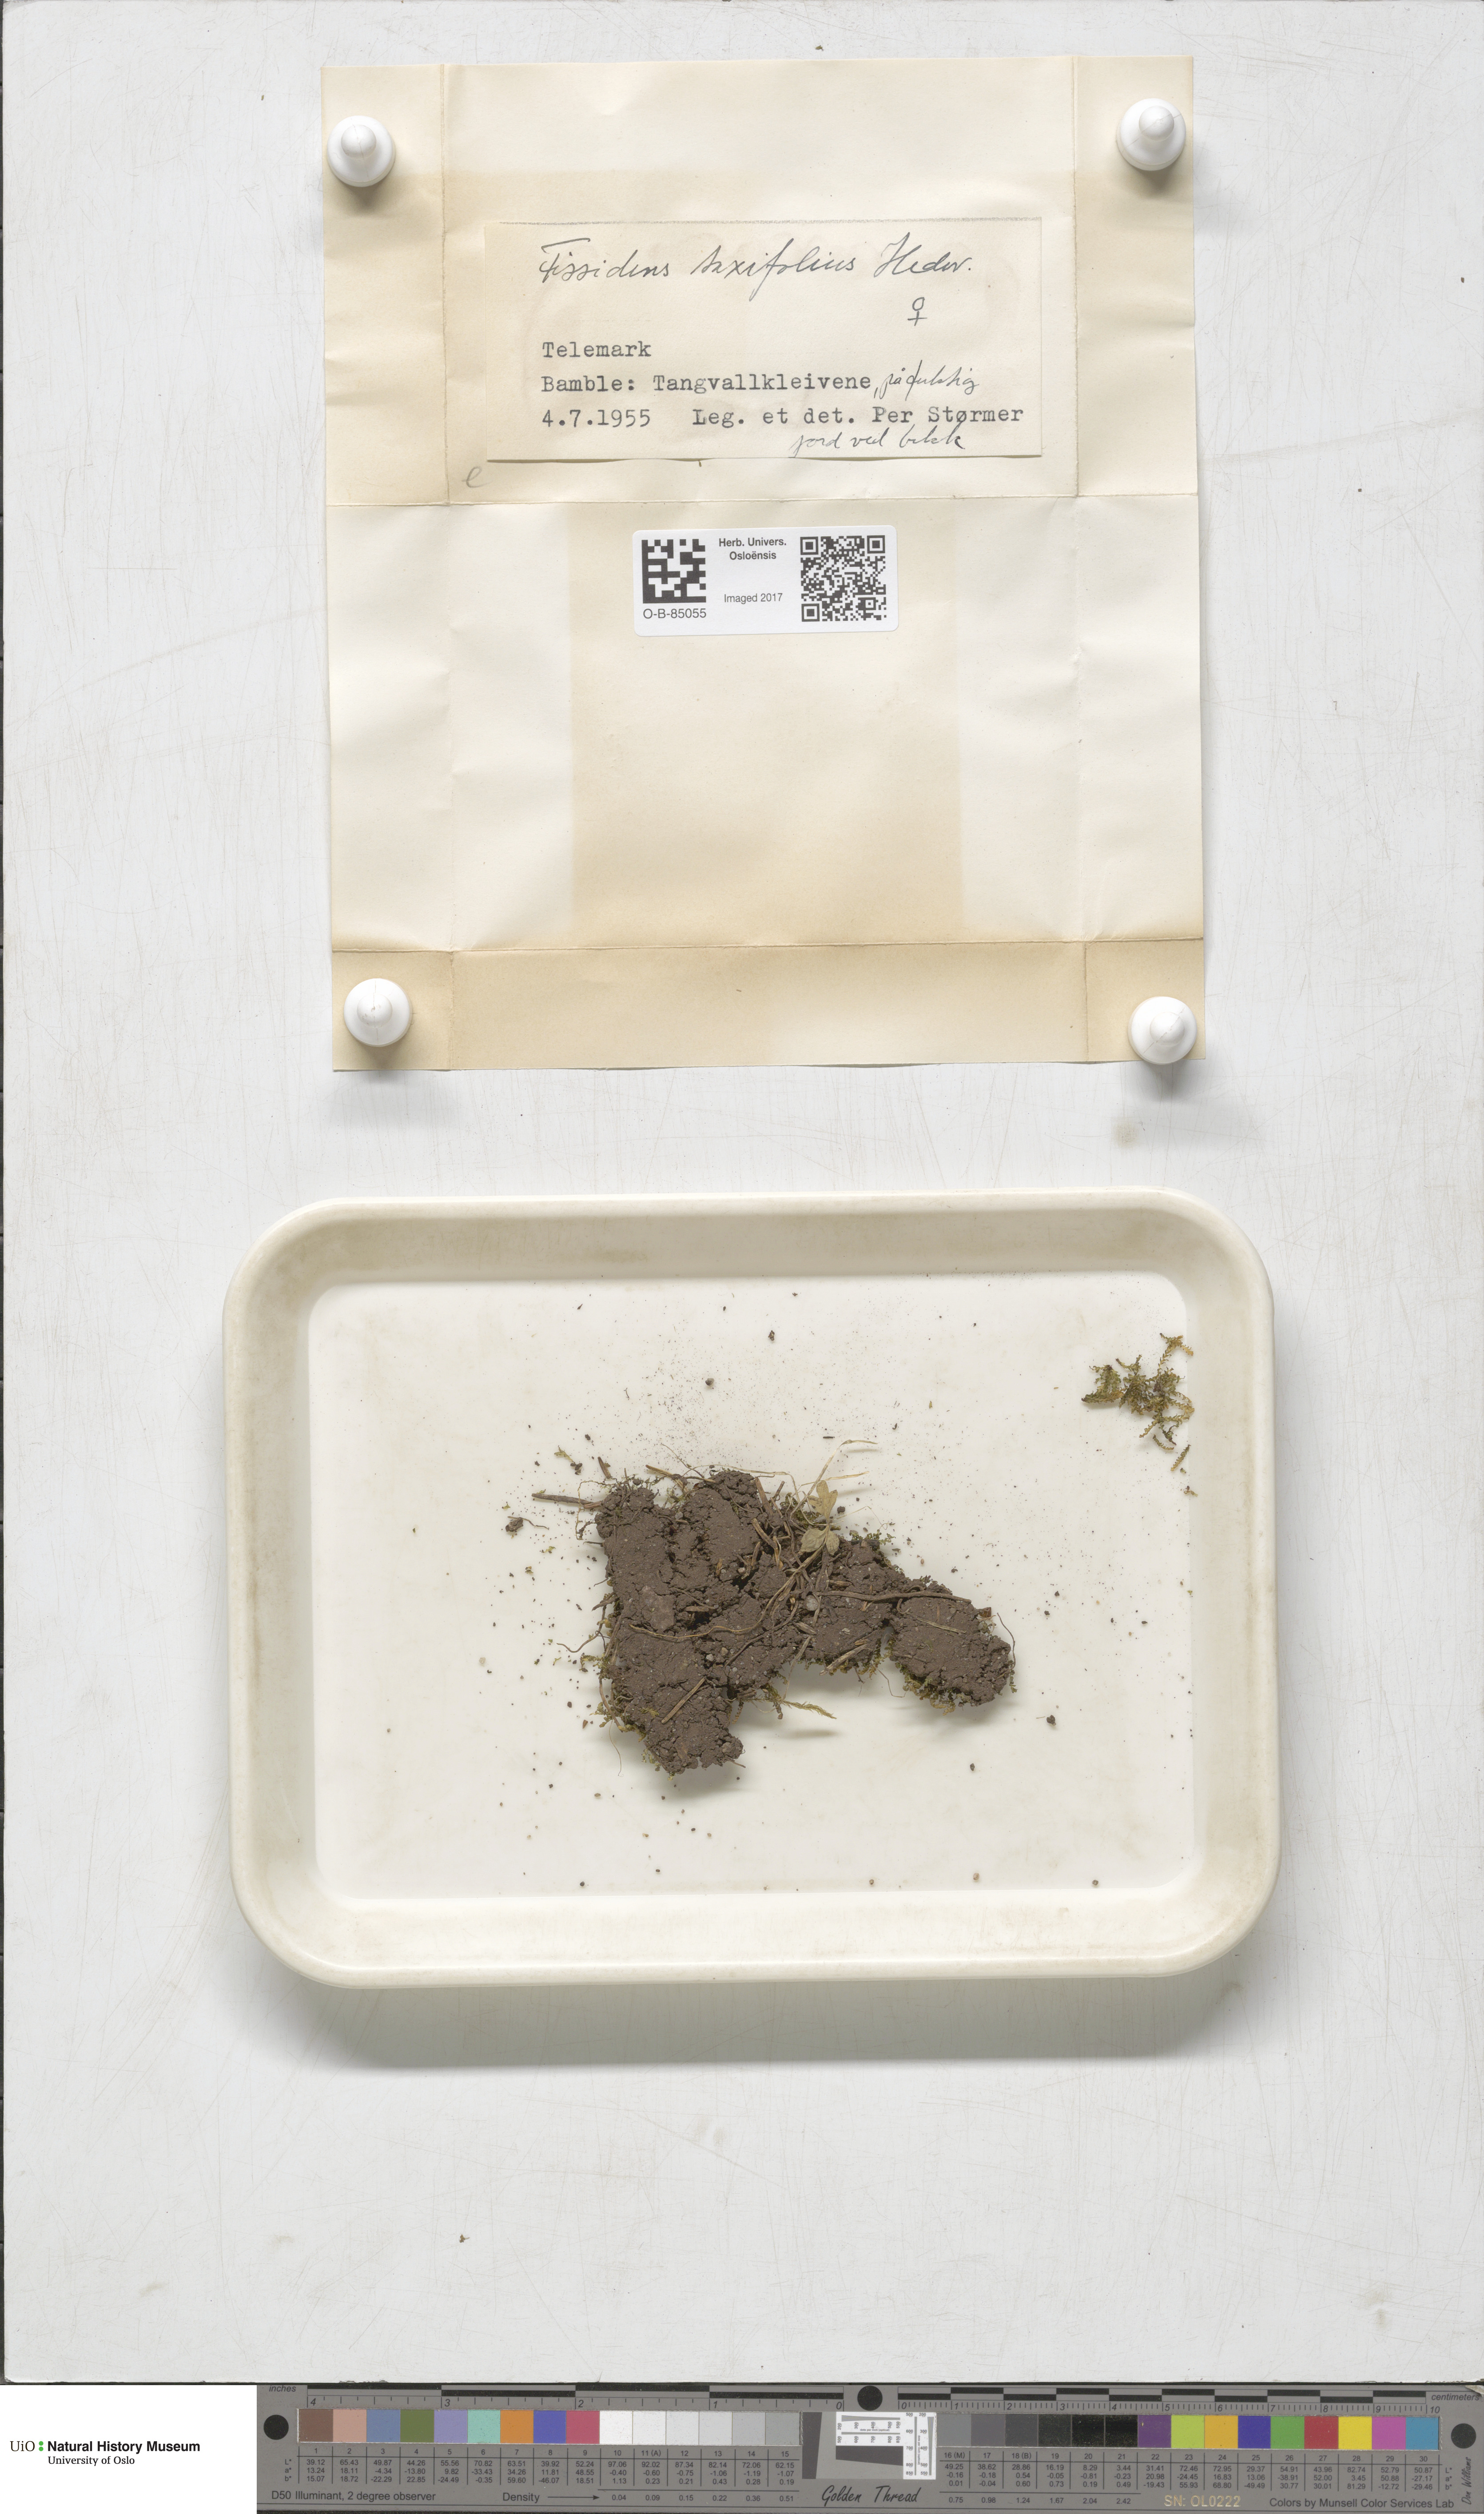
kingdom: Plantae
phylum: Bryophyta
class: Bryopsida
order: Dicranales
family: Fissidentaceae
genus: Fissidens
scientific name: Fissidens taxifolius
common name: Yew-leaved pocket moss
